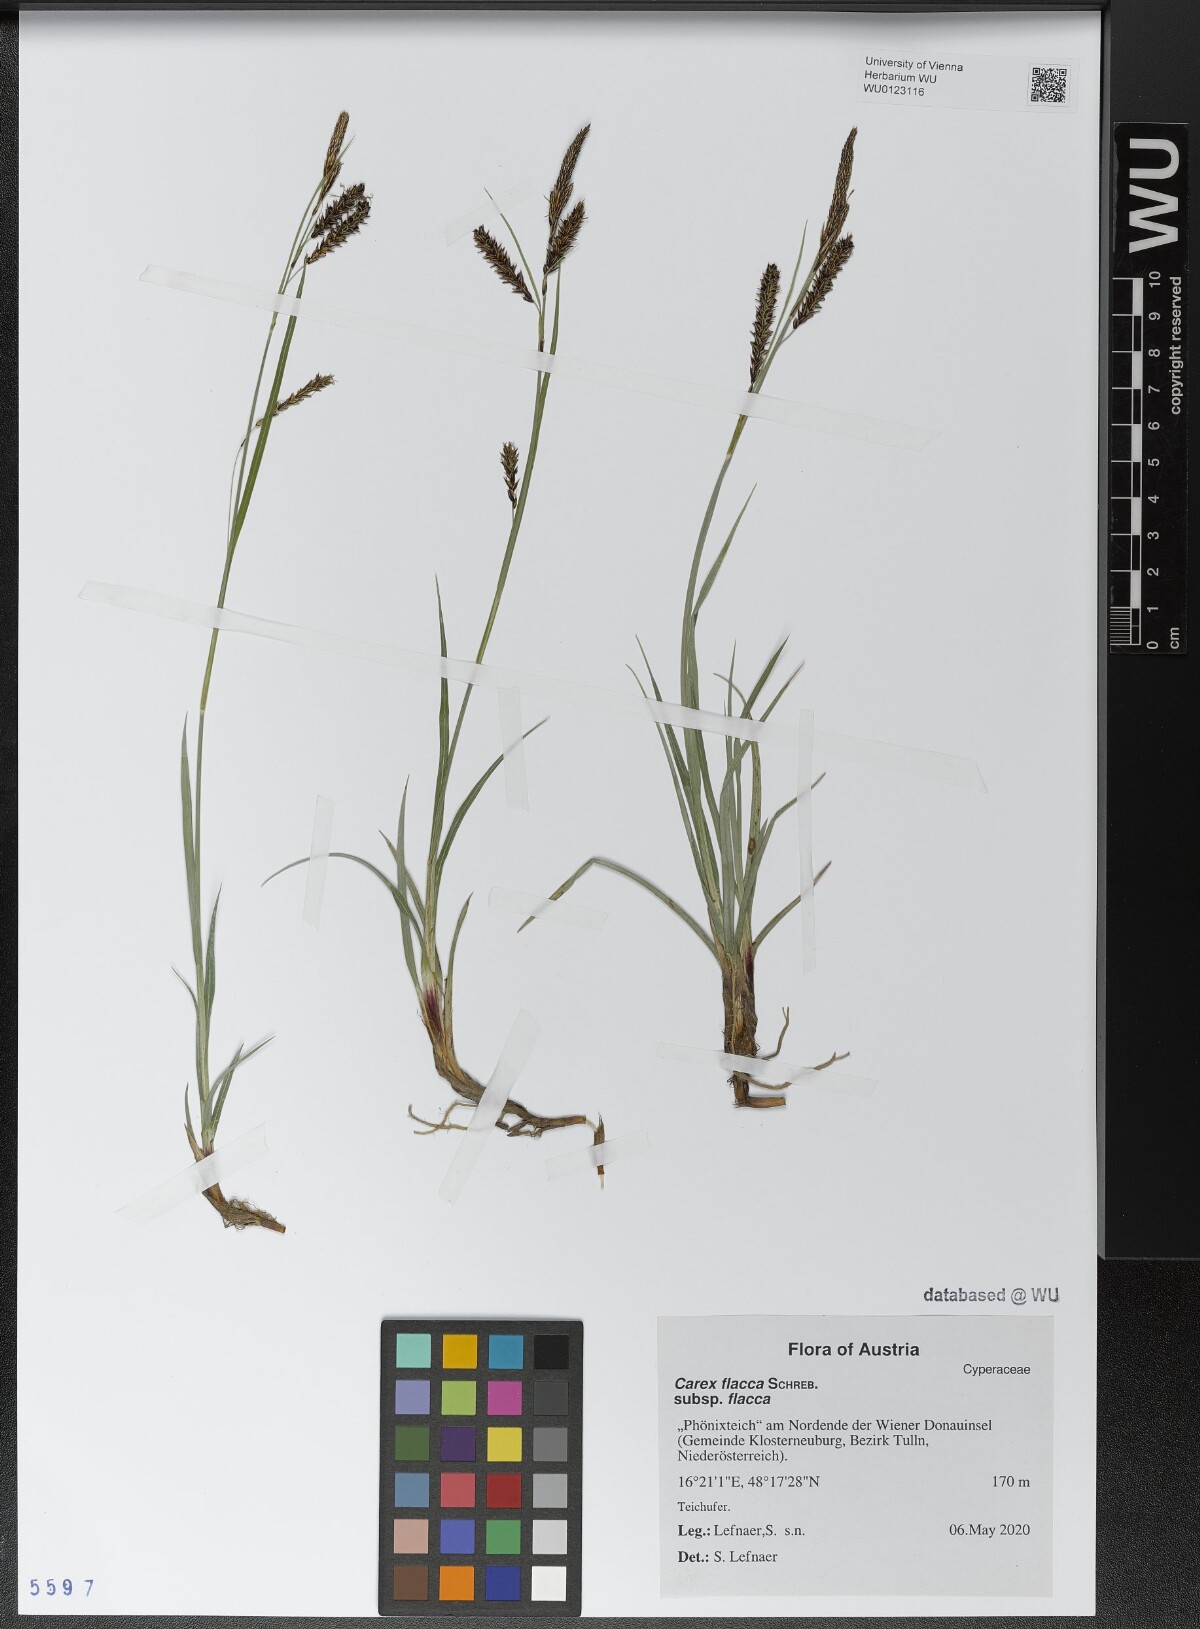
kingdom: Plantae
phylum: Tracheophyta
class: Liliopsida
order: Poales
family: Cyperaceae
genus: Carex
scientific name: Carex flacca
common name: Glaucous sedge
